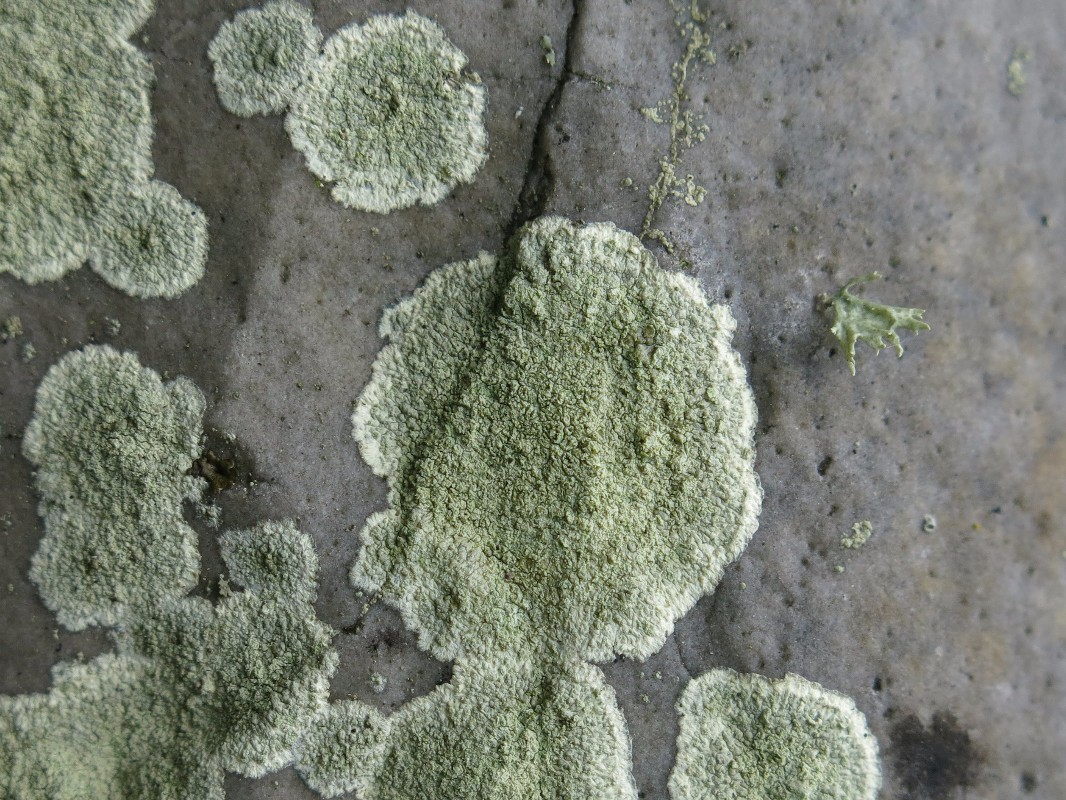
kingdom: Fungi
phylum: Ascomycota
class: Lecanoromycetes
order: Lecanorales
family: Lecanoraceae
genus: Lecanora
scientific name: Lecanora orosthea
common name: grønskurvet kantskivelav
